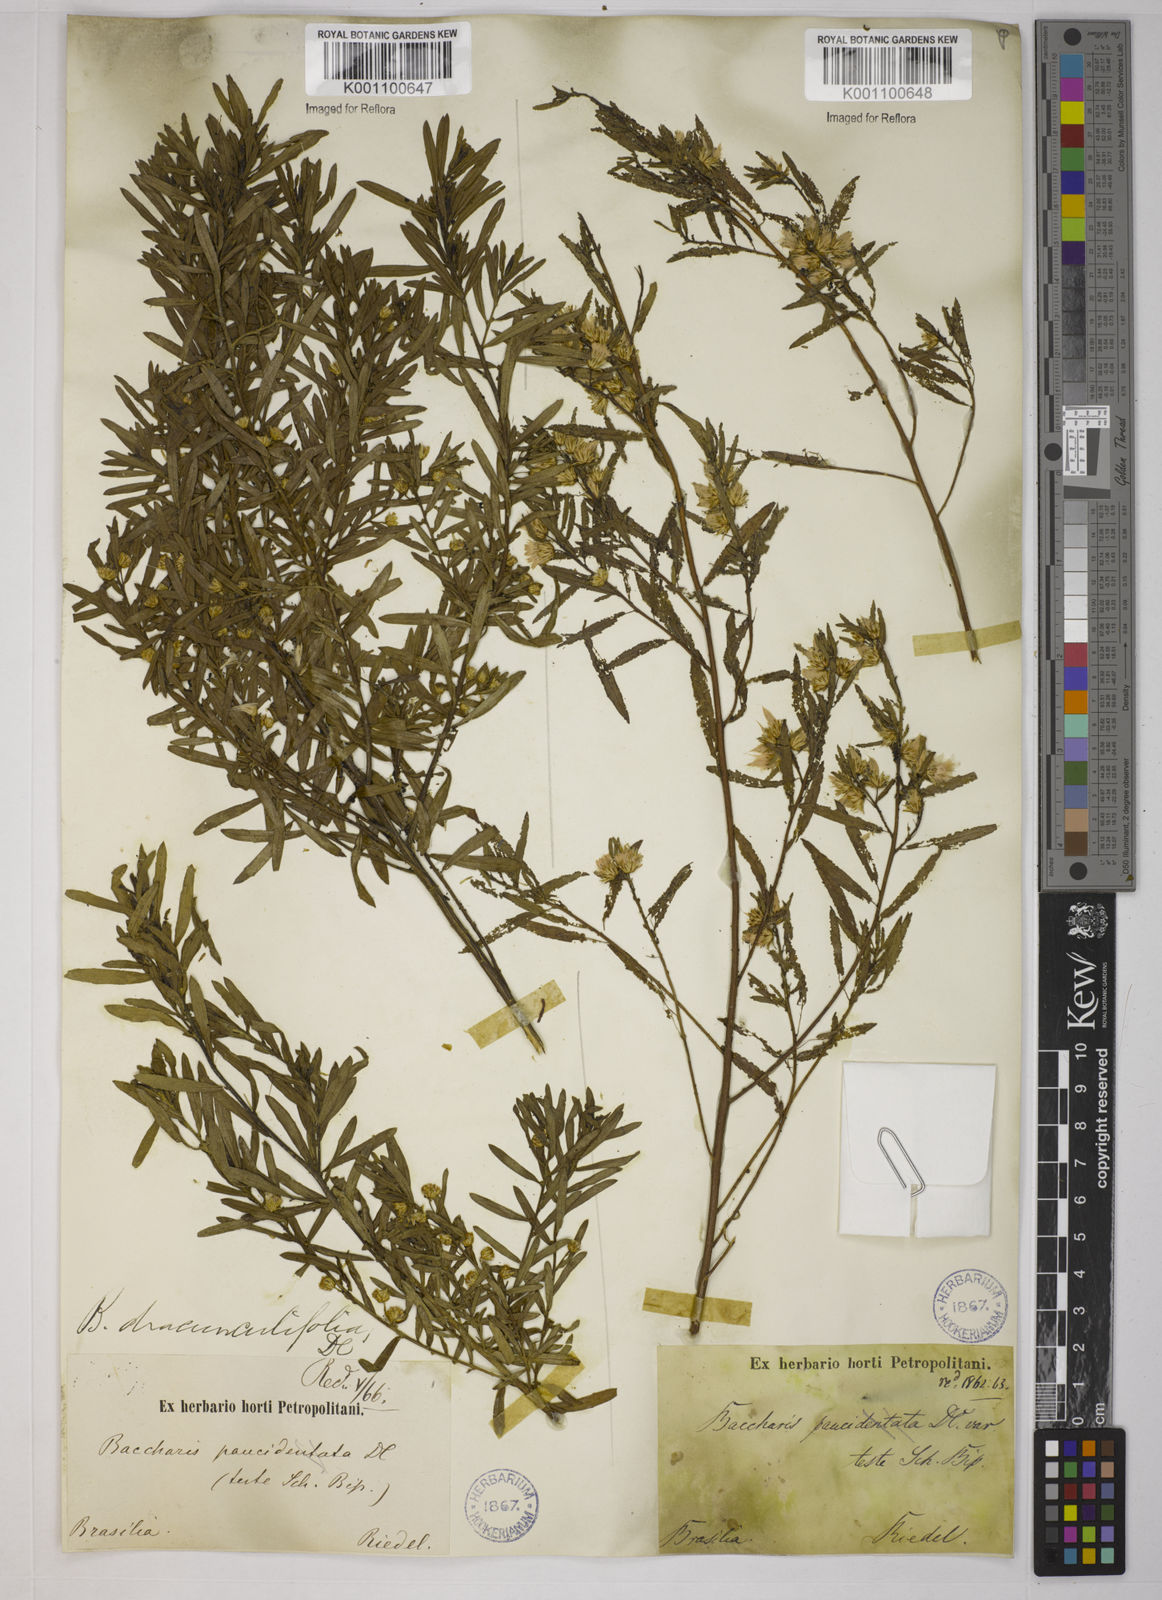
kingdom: Plantae
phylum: Tracheophyta
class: Magnoliopsida
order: Asterales
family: Asteraceae
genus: Baccharis
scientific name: Baccharis dracunculifolia
